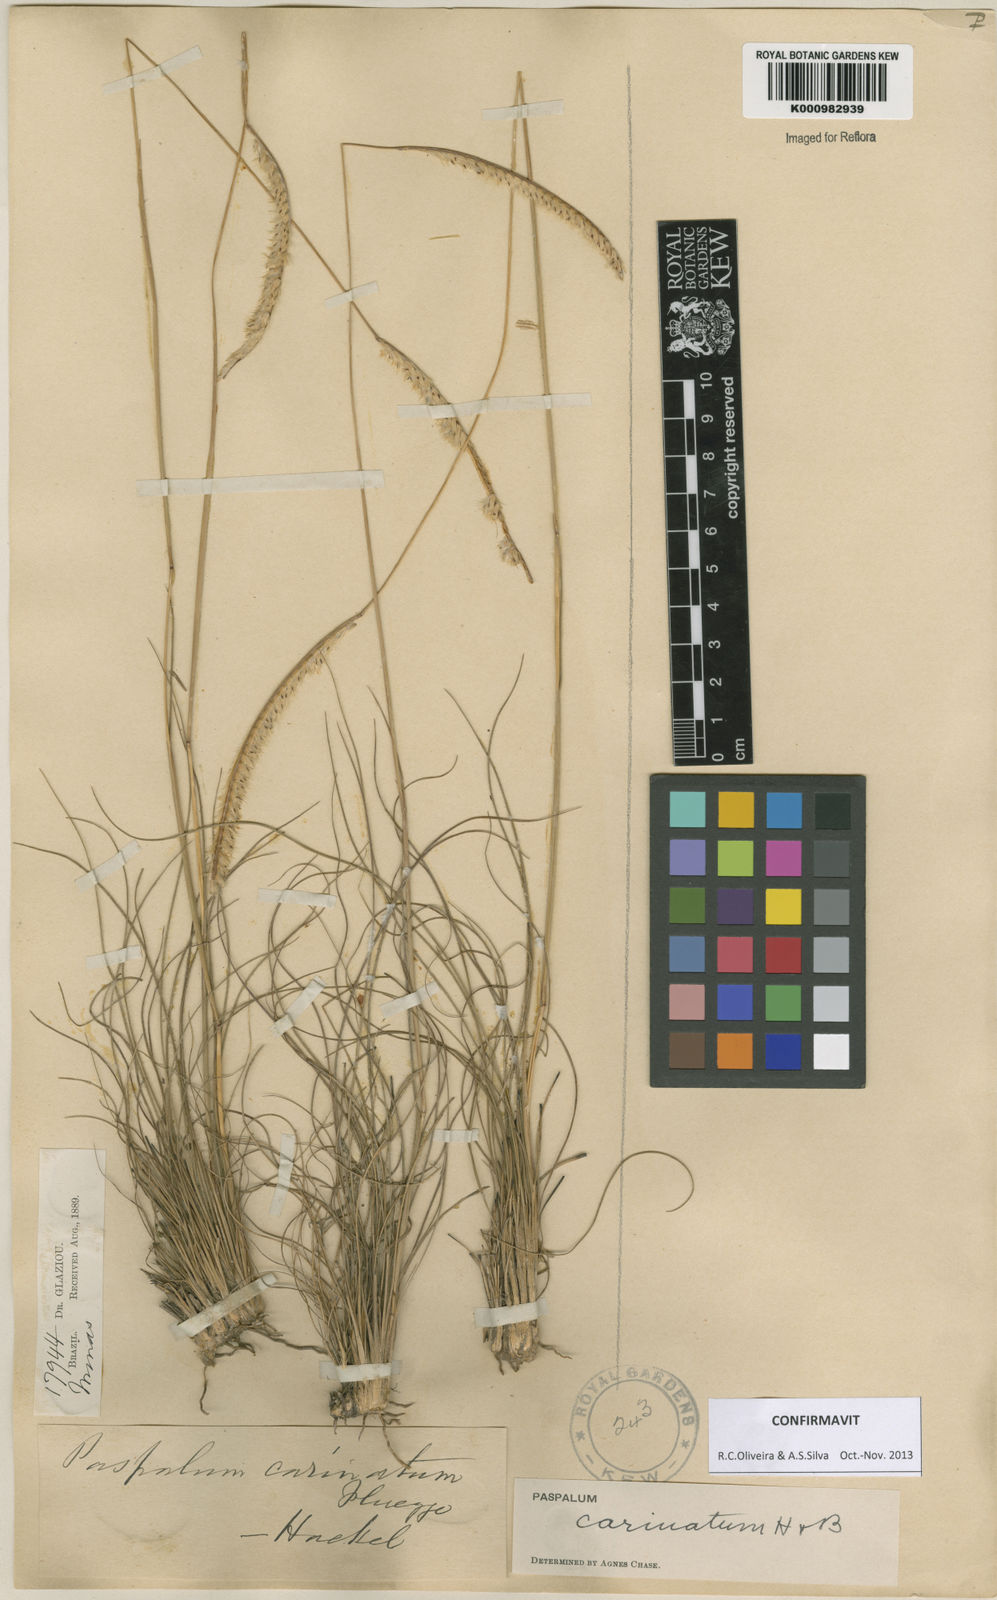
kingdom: Plantae
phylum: Tracheophyta
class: Liliopsida
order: Poales
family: Poaceae
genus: Paspalum
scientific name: Paspalum
